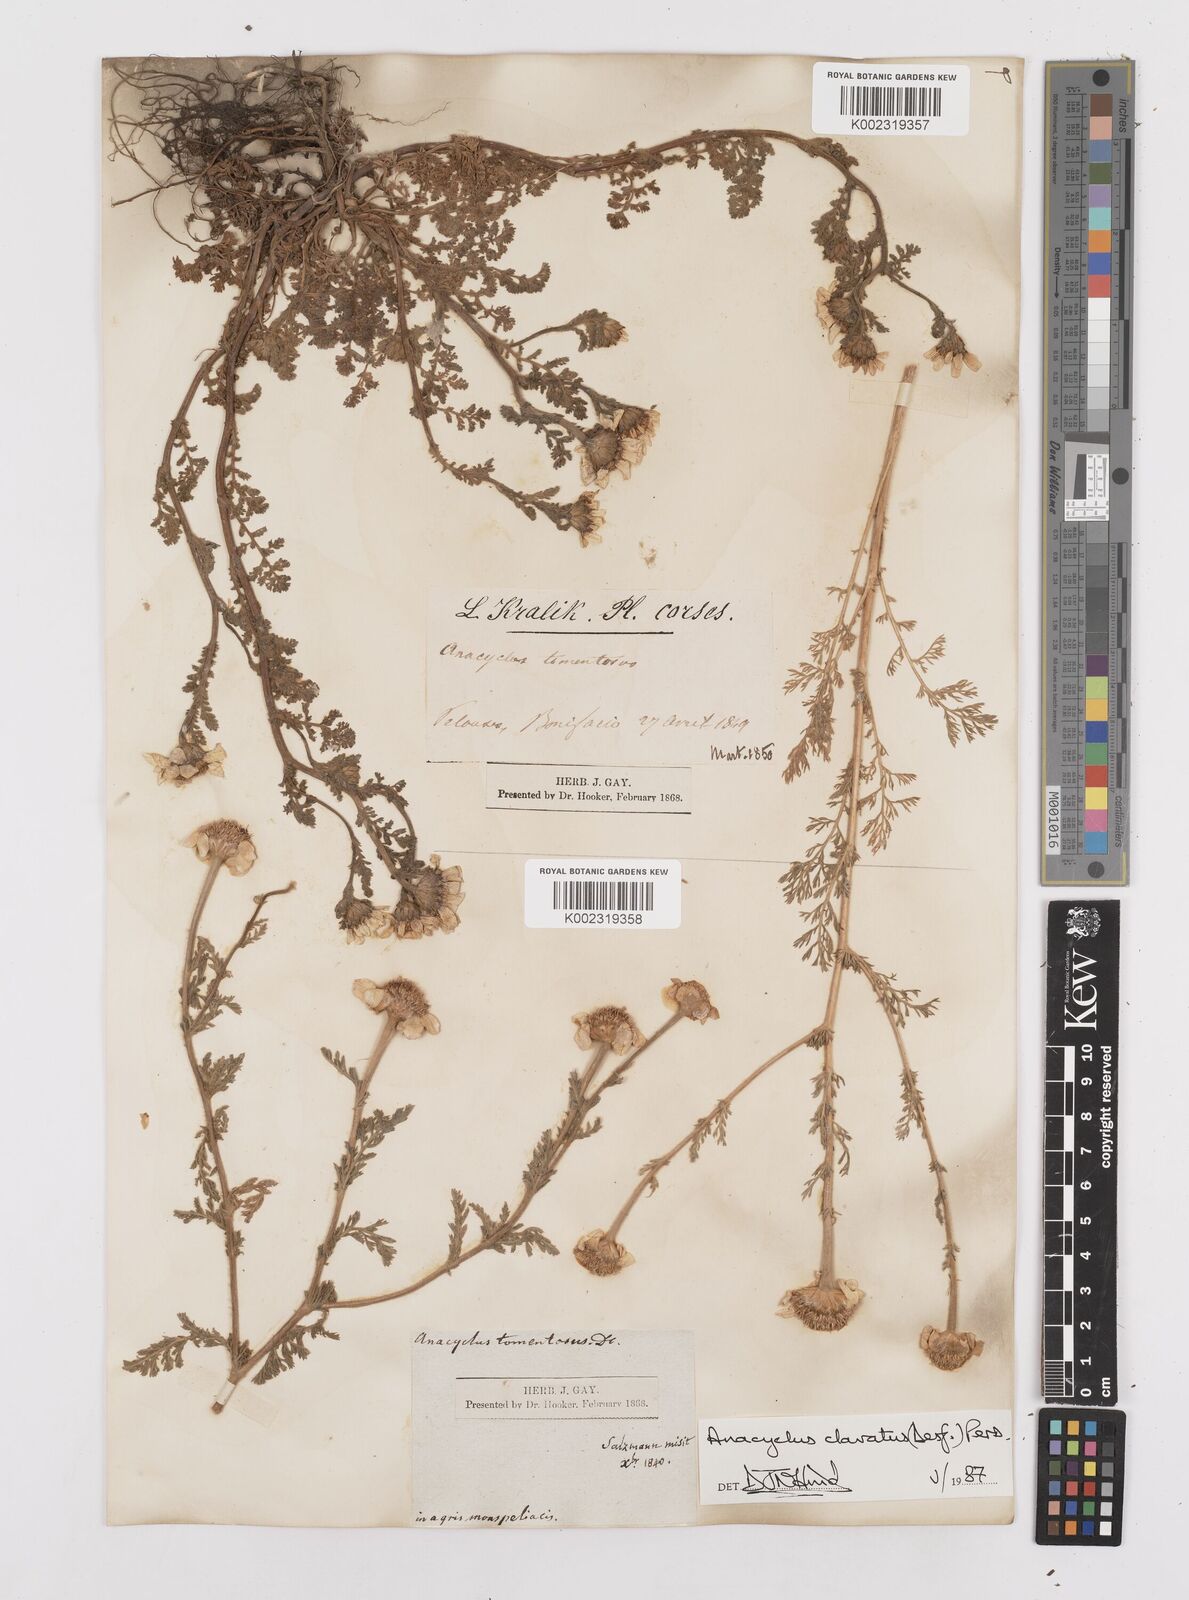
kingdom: Plantae
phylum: Tracheophyta
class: Magnoliopsida
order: Asterales
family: Asteraceae
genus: Anacyclus
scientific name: Anacyclus clavatus
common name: Whitebuttons
